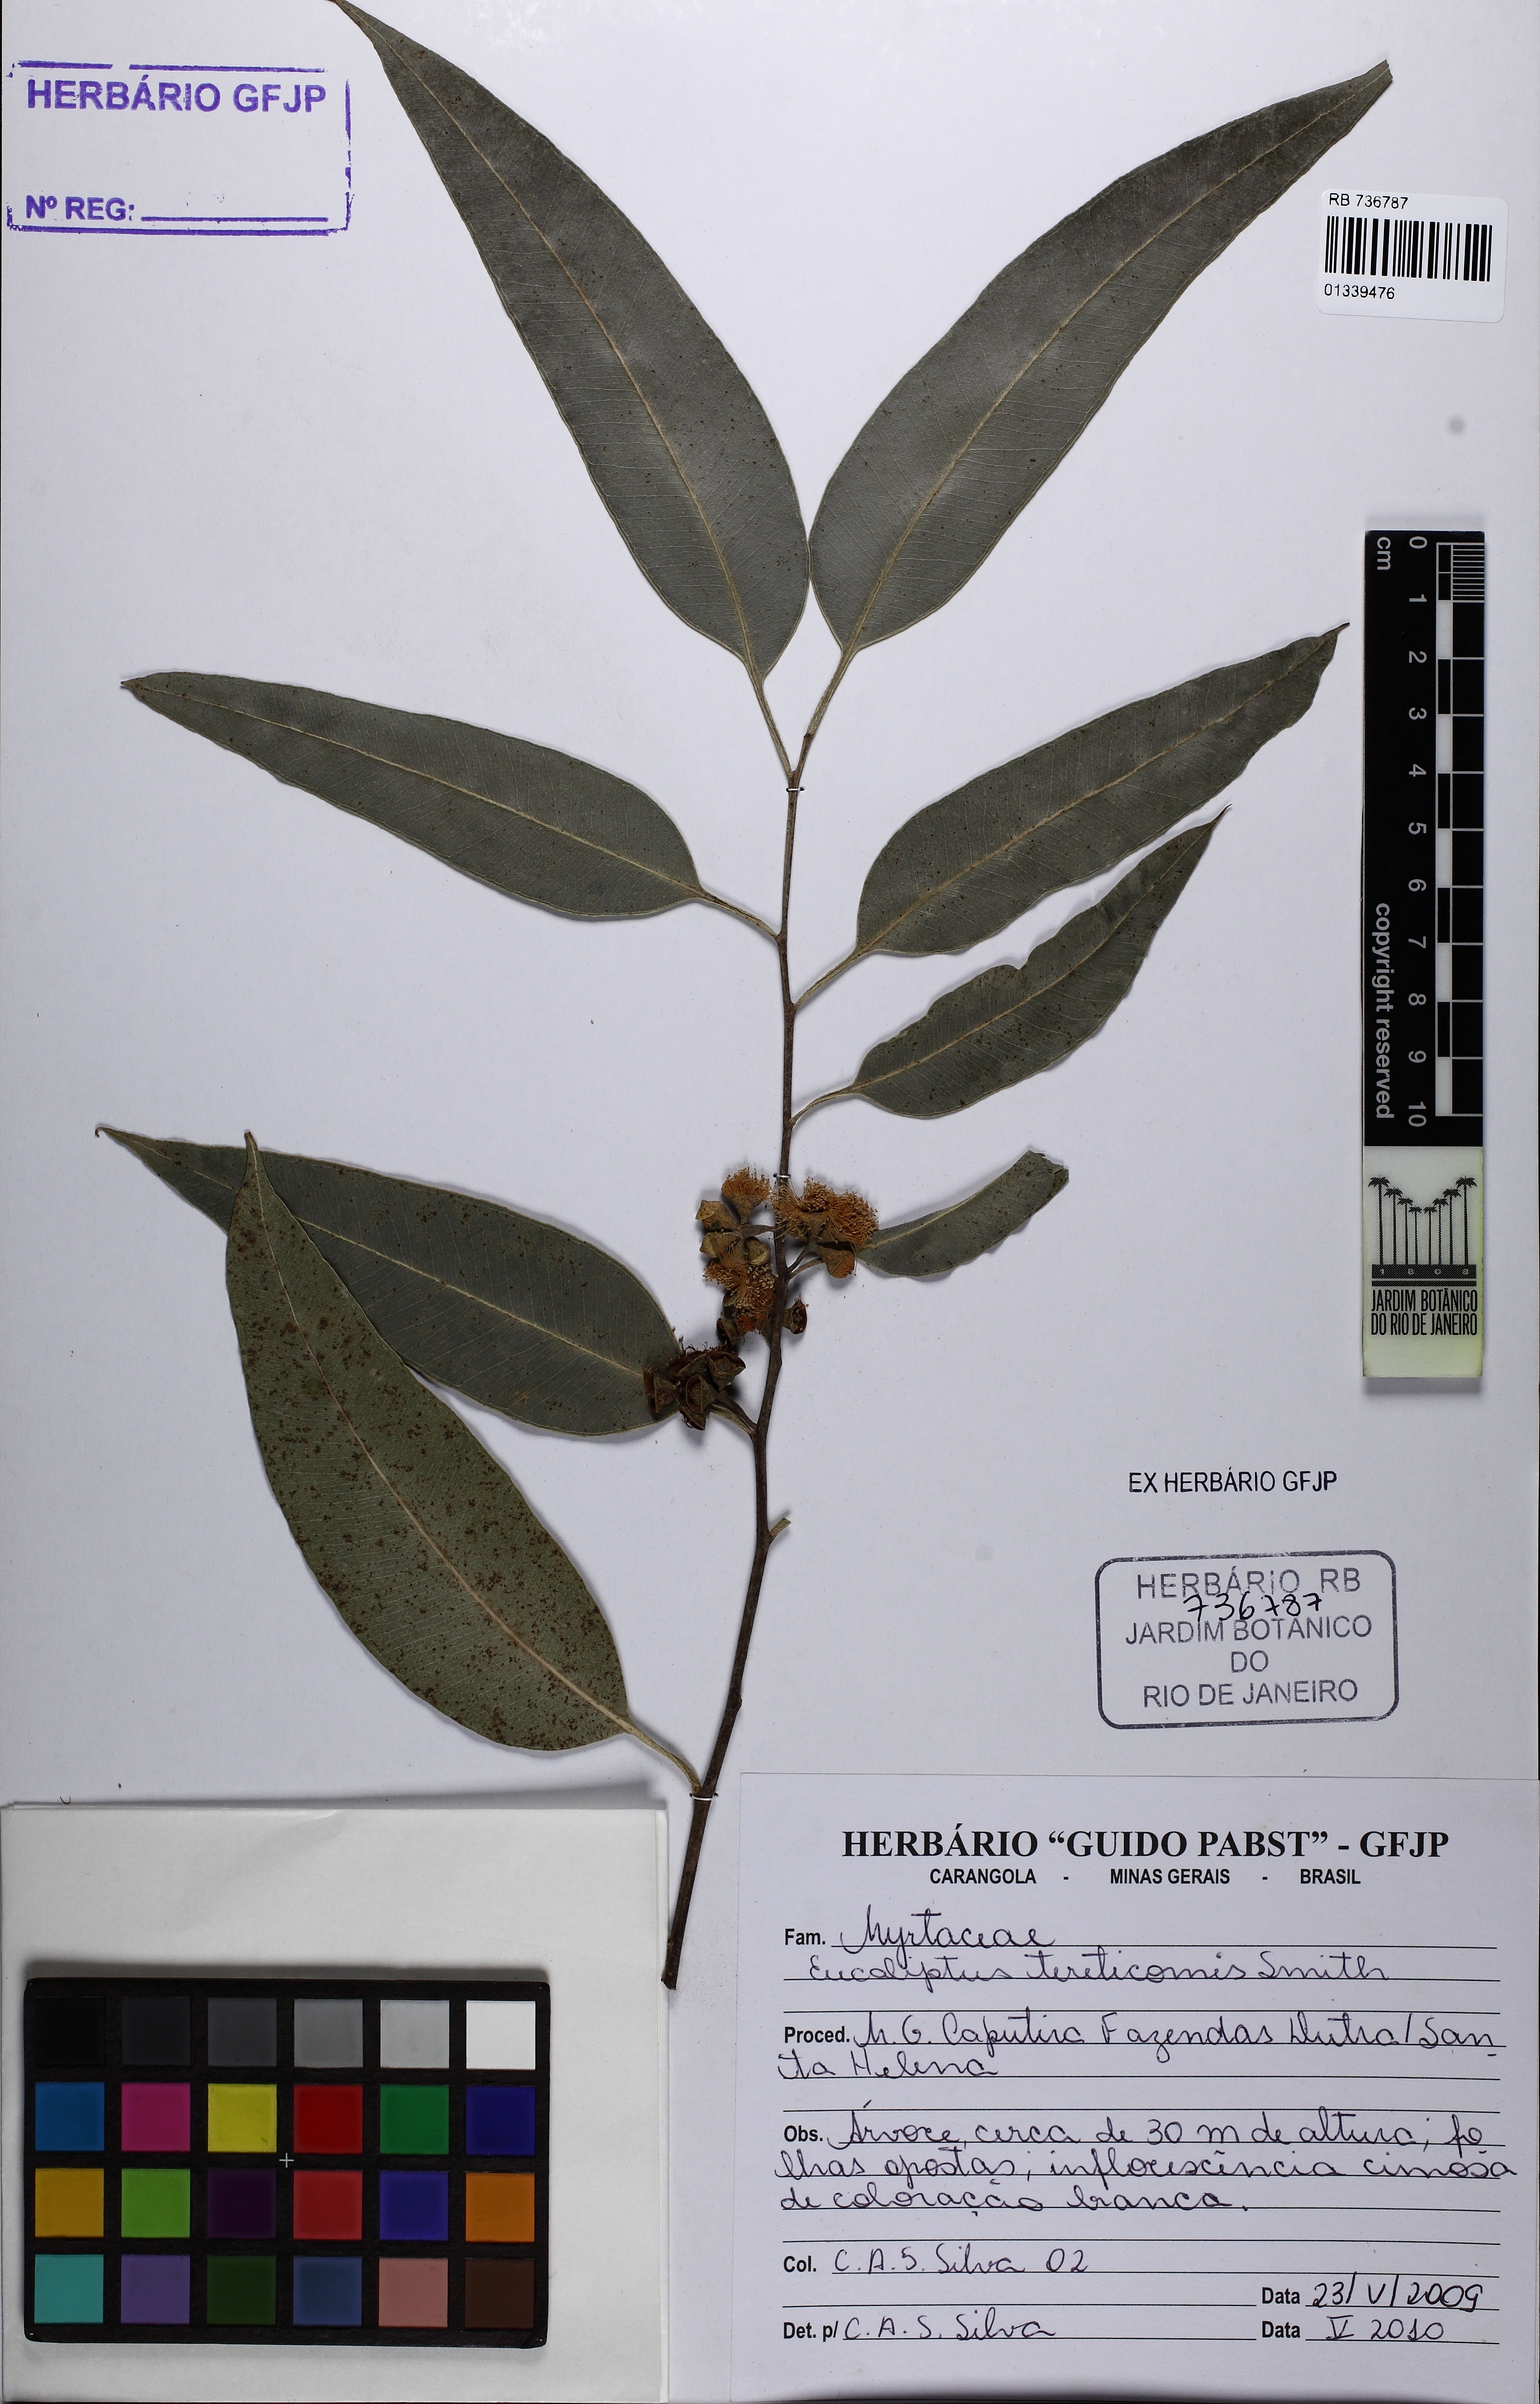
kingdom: Plantae
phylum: Tracheophyta
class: Magnoliopsida
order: Myrtales
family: Myrtaceae
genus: Eucalyptus
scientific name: Eucalyptus tereticornis
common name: Forest redgum
